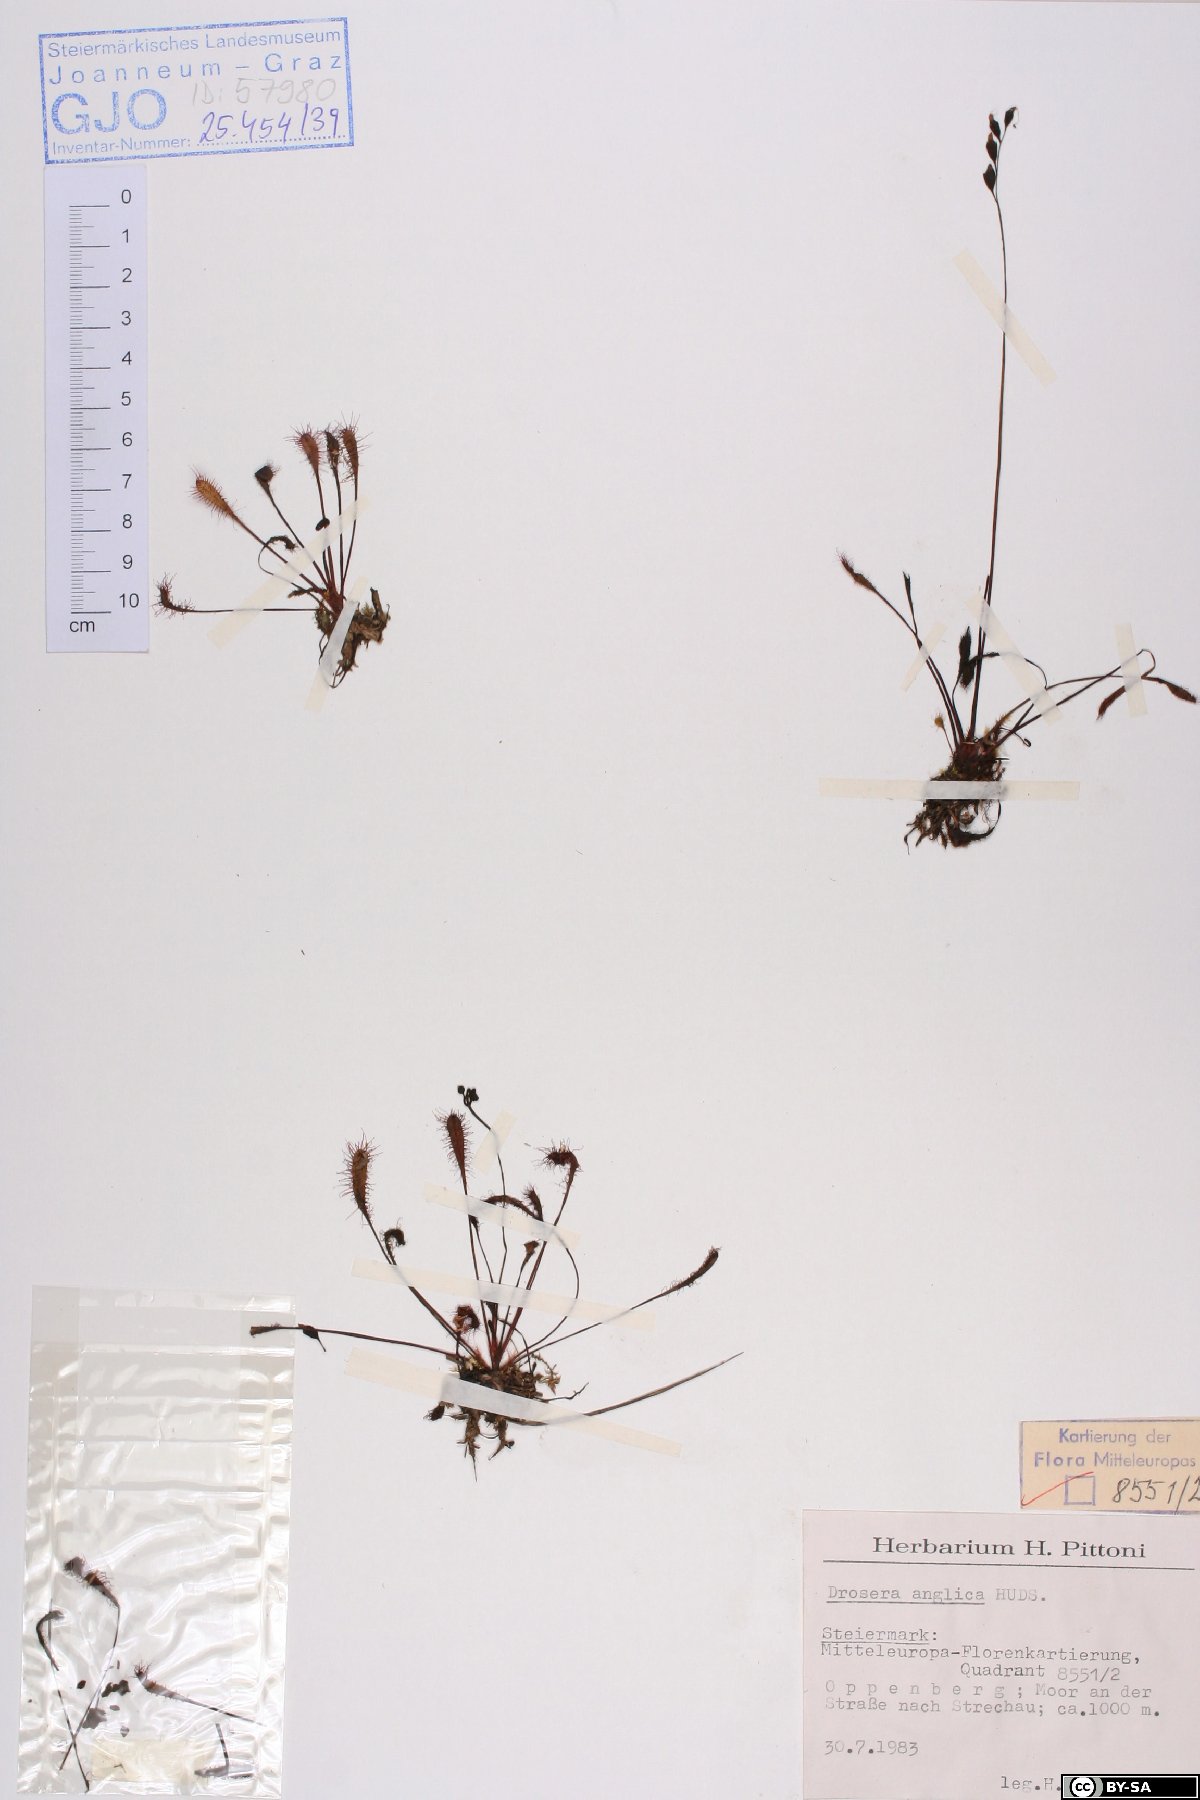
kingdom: Plantae
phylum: Tracheophyta
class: Magnoliopsida
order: Caryophyllales
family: Droseraceae
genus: Drosera
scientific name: Drosera anglica
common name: Great sundew
